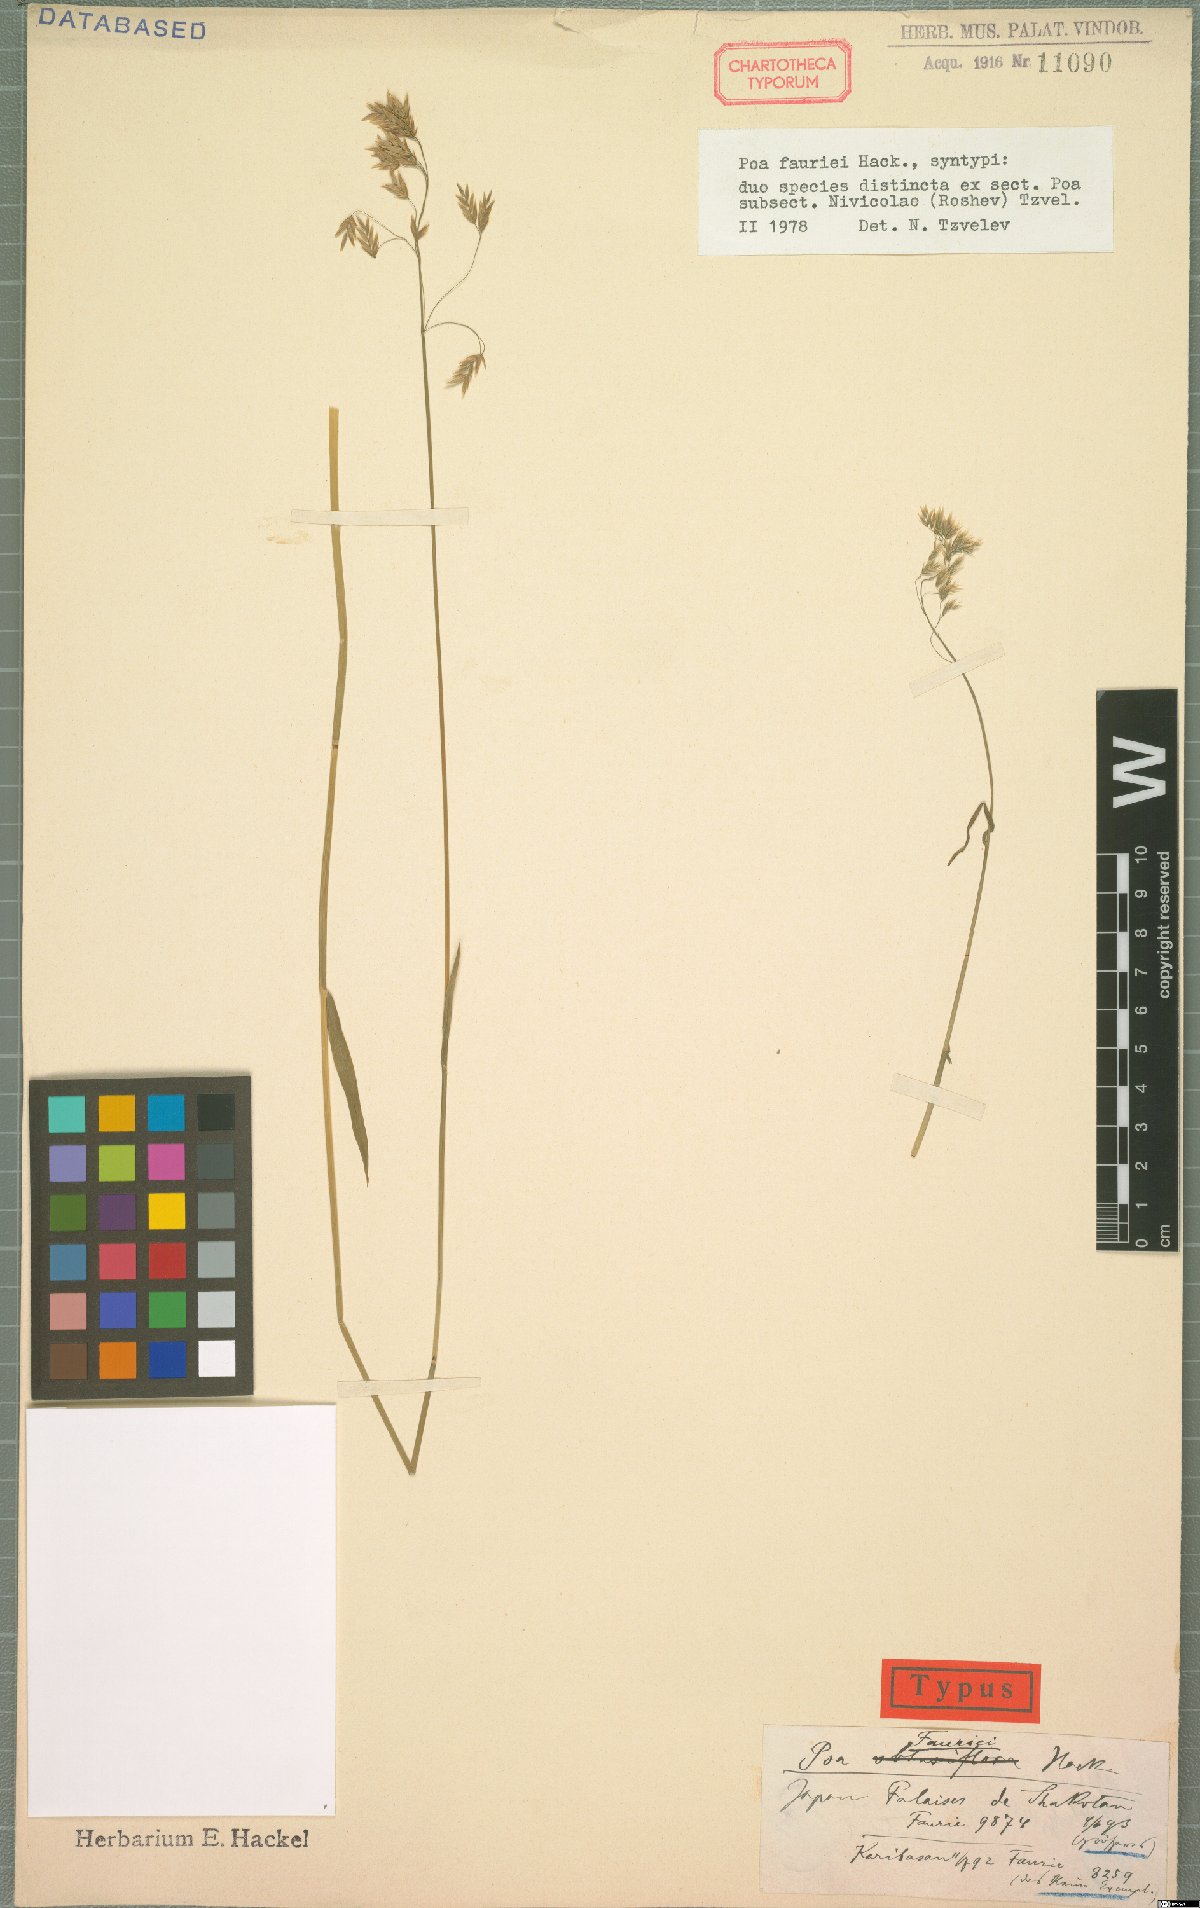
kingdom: Plantae
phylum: Tracheophyta
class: Liliopsida
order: Poales
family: Poaceae
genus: Poa
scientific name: Poa fauriei
